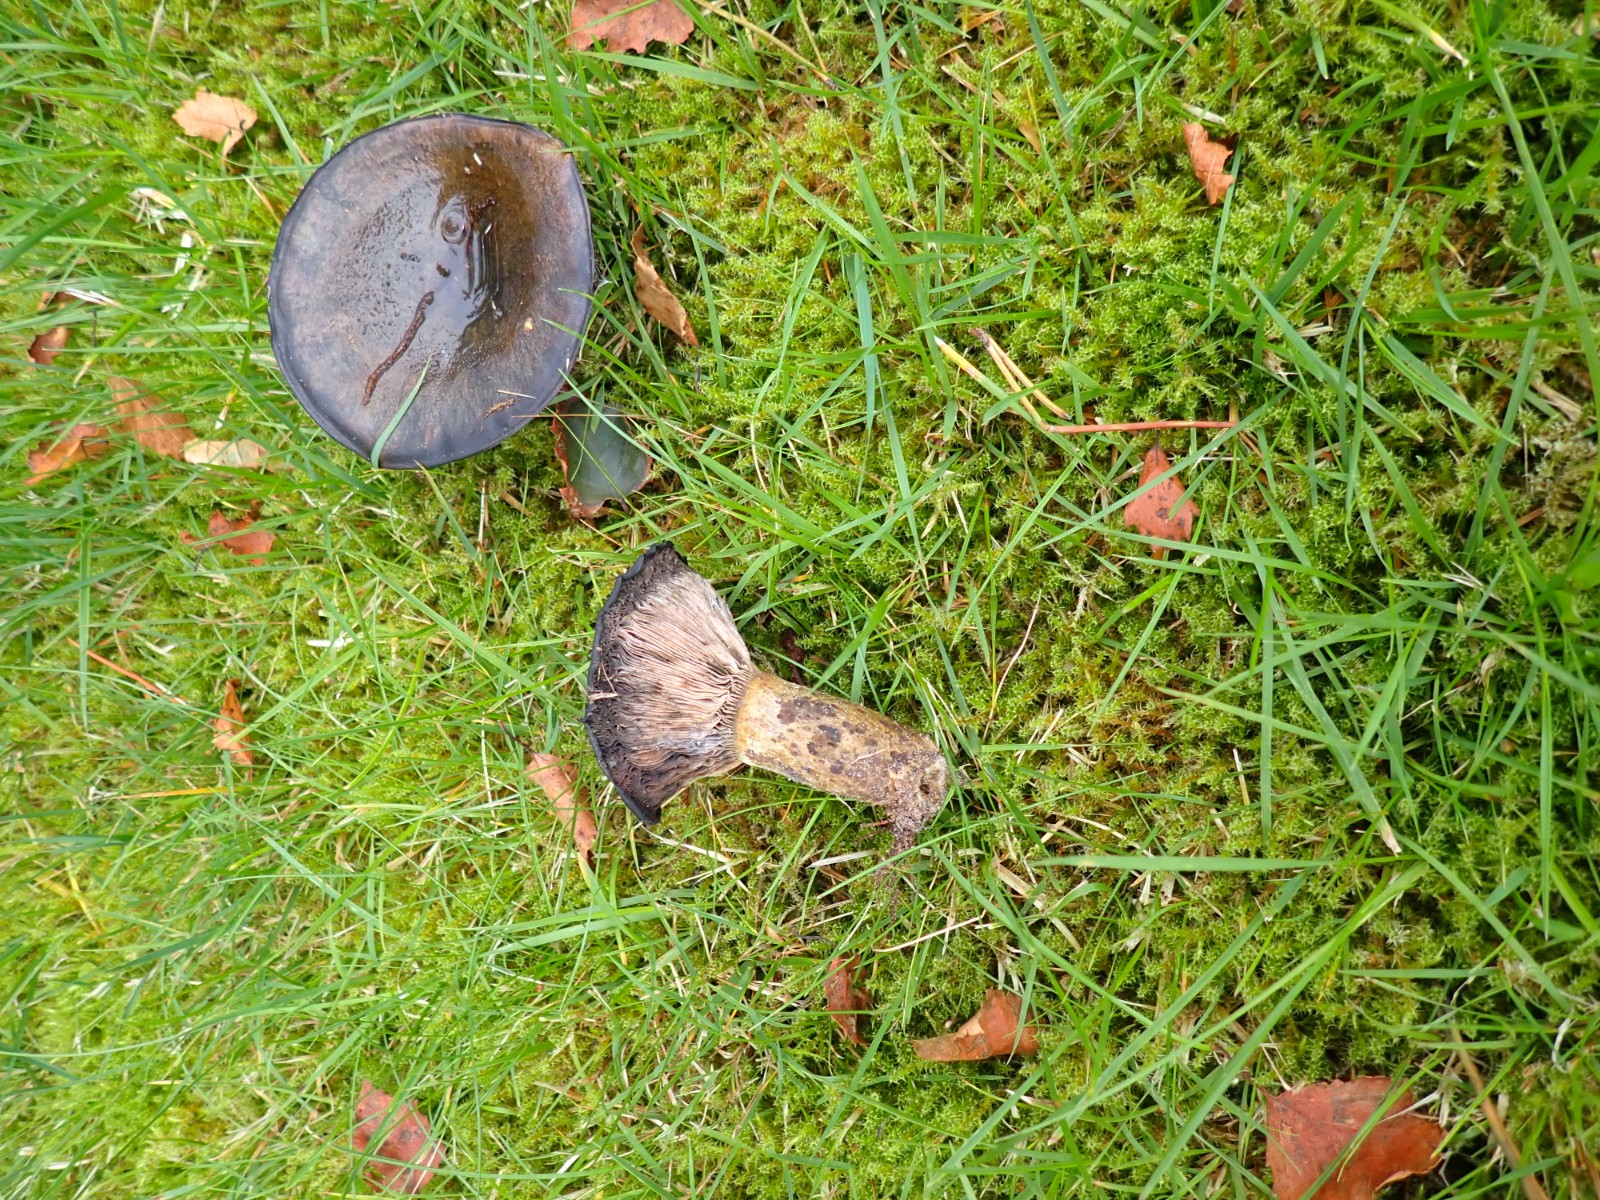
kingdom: Fungi
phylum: Basidiomycota
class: Agaricomycetes
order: Russulales
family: Russulaceae
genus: Lactarius
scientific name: Lactarius necator
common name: manddraber-mælkehat
